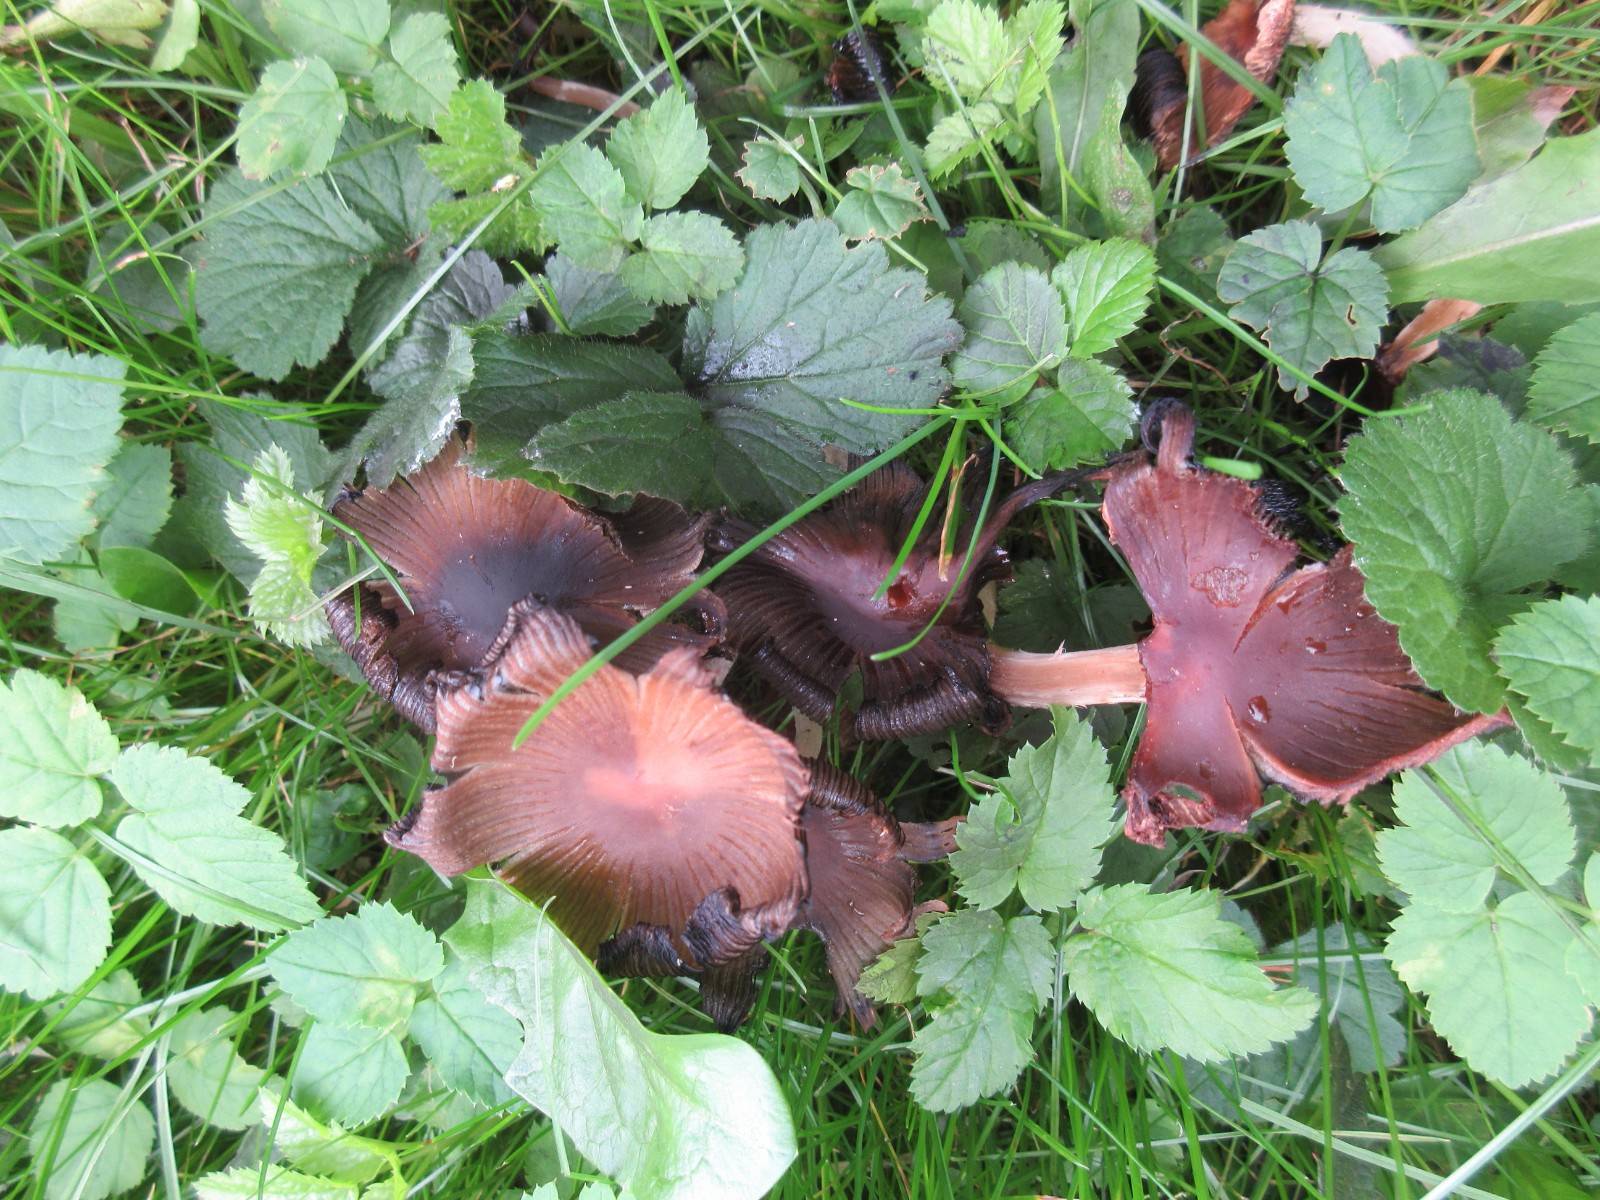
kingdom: Fungi
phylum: Basidiomycota
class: Agaricomycetes
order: Agaricales
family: Psathyrellaceae
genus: Coprinellus
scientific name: Coprinellus deliquescens
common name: rusporet blækhat
